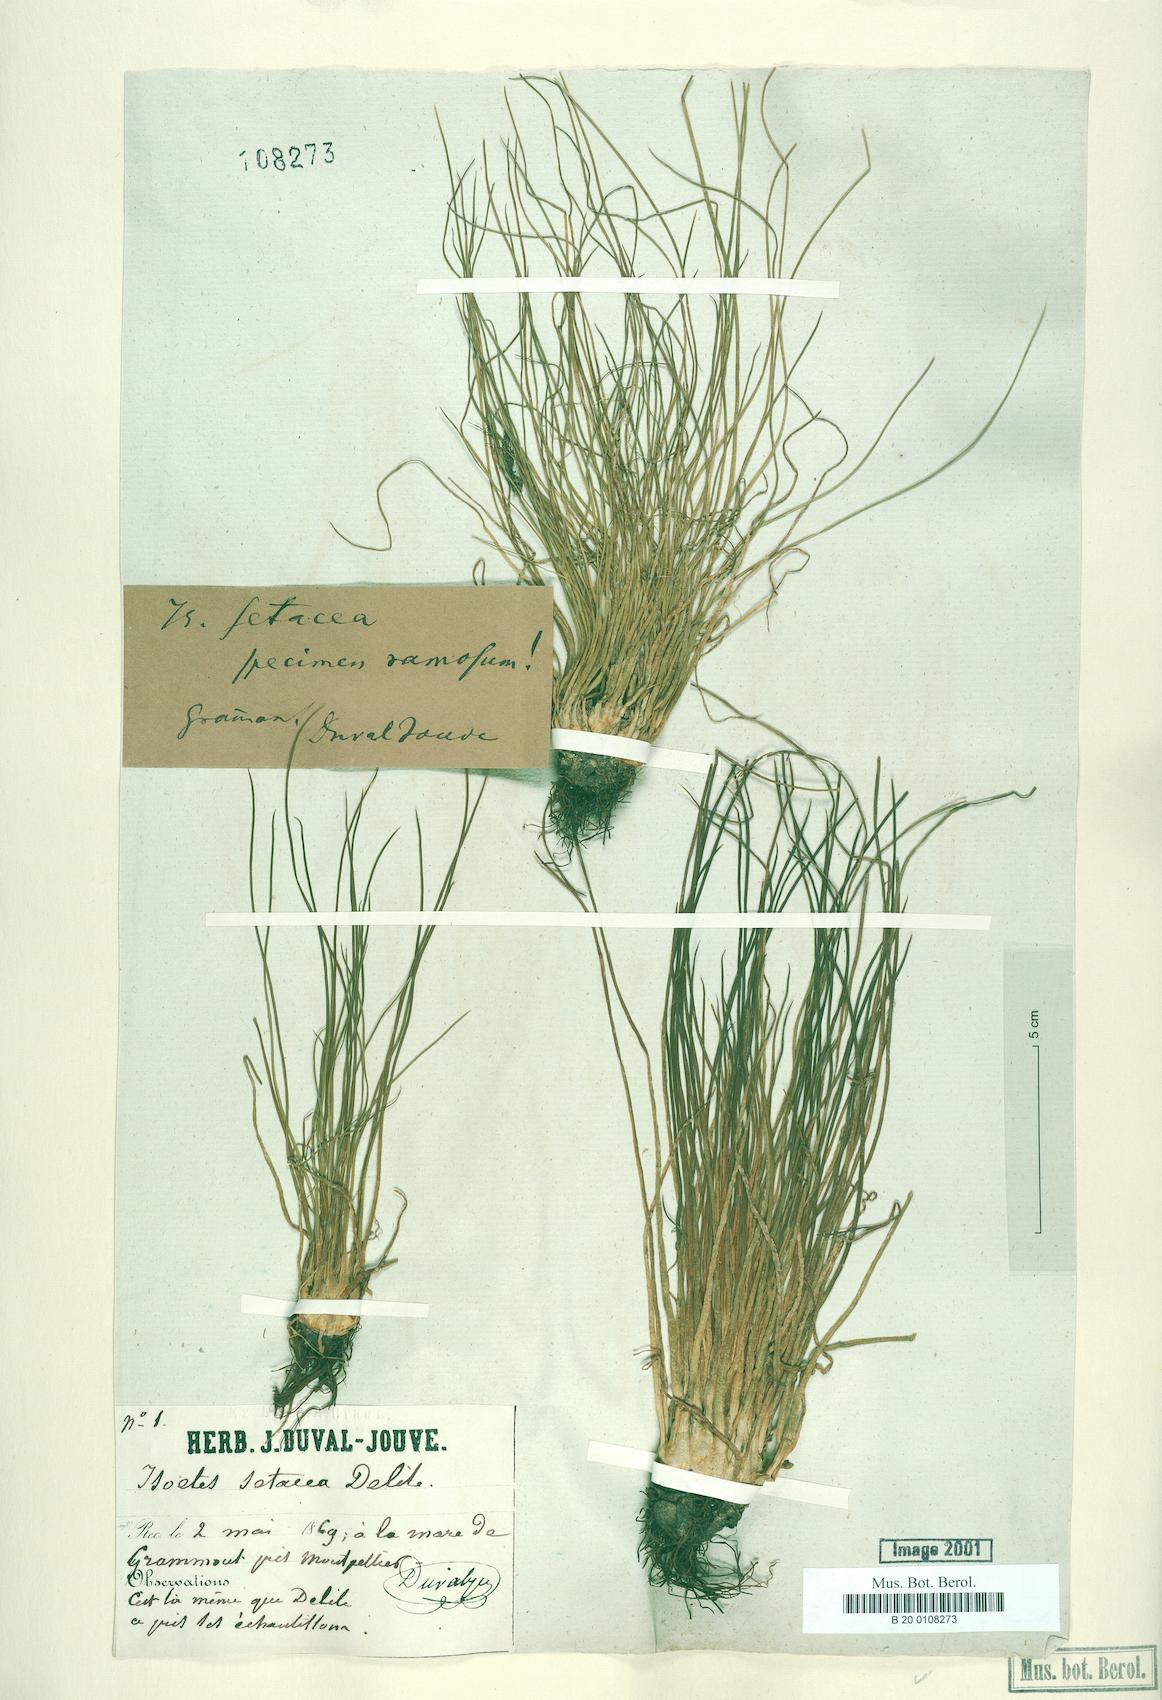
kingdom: Plantae
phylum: Tracheophyta
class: Lycopodiopsida
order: Isoetales
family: Isoetaceae
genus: Isoetes
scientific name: Isoetes lacustris
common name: Common quillwort
